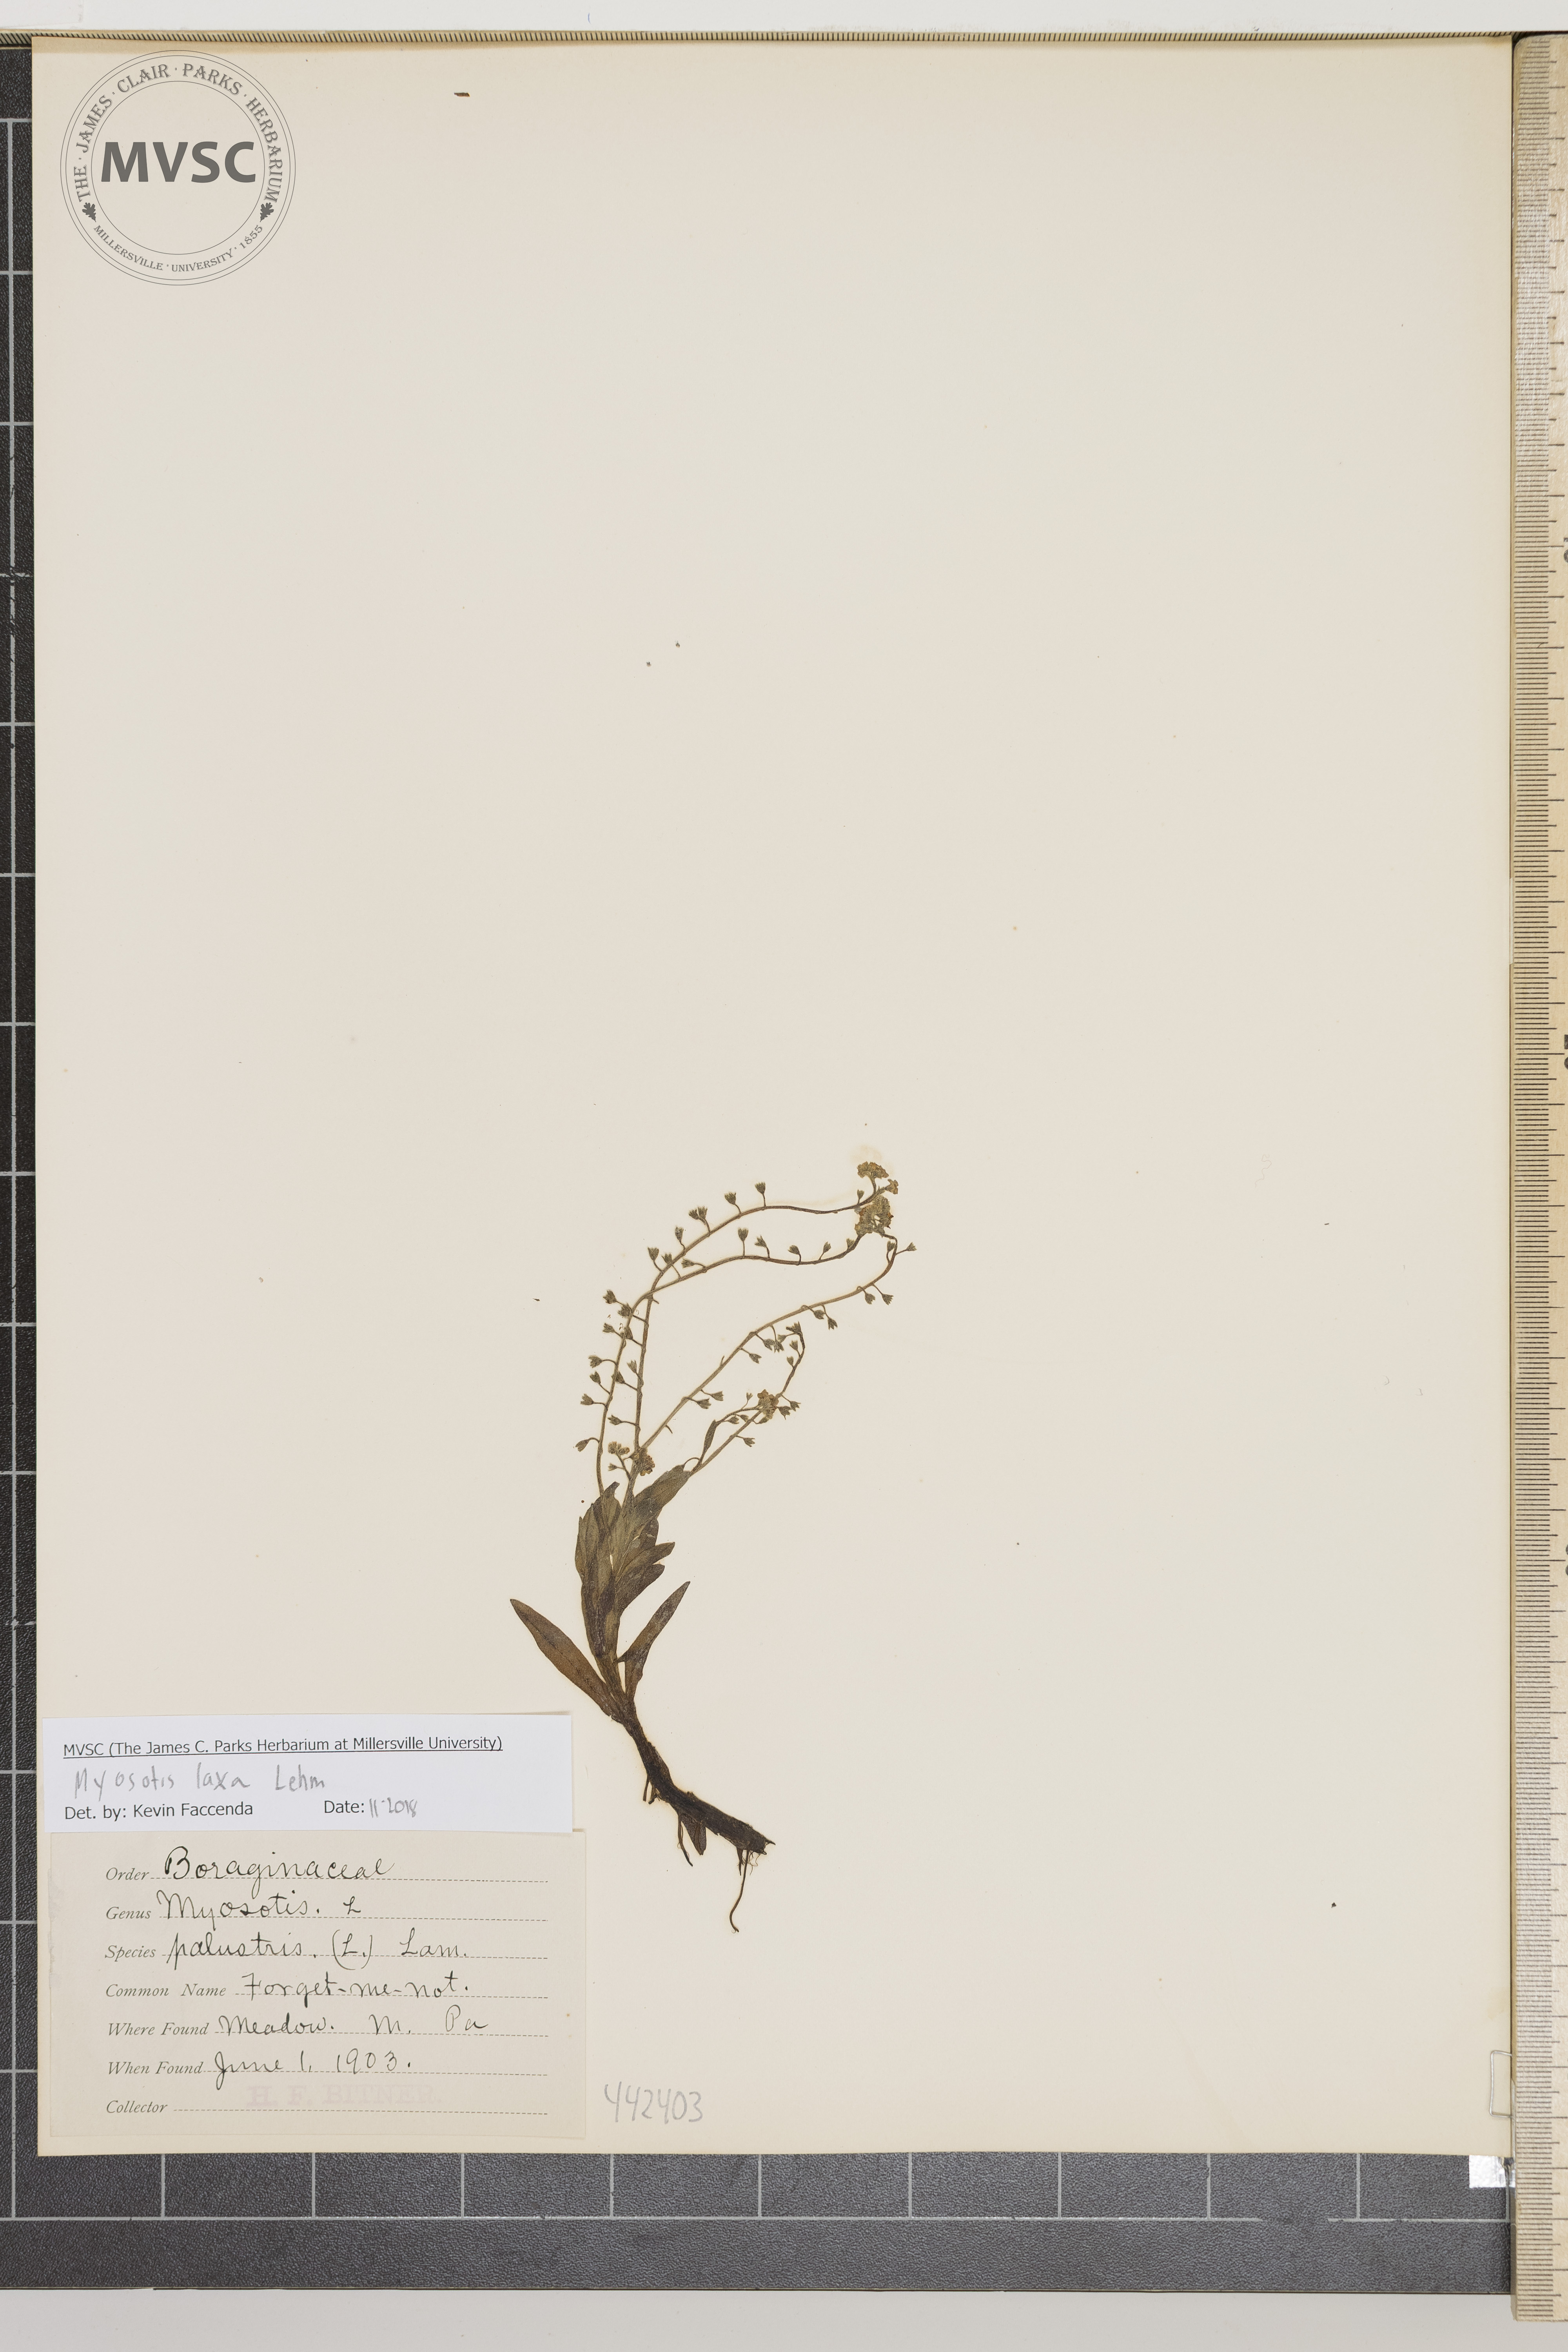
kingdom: Plantae
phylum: Tracheophyta
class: Magnoliopsida
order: Boraginales
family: Boraginaceae
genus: Myosotis
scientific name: Myosotis laxa
